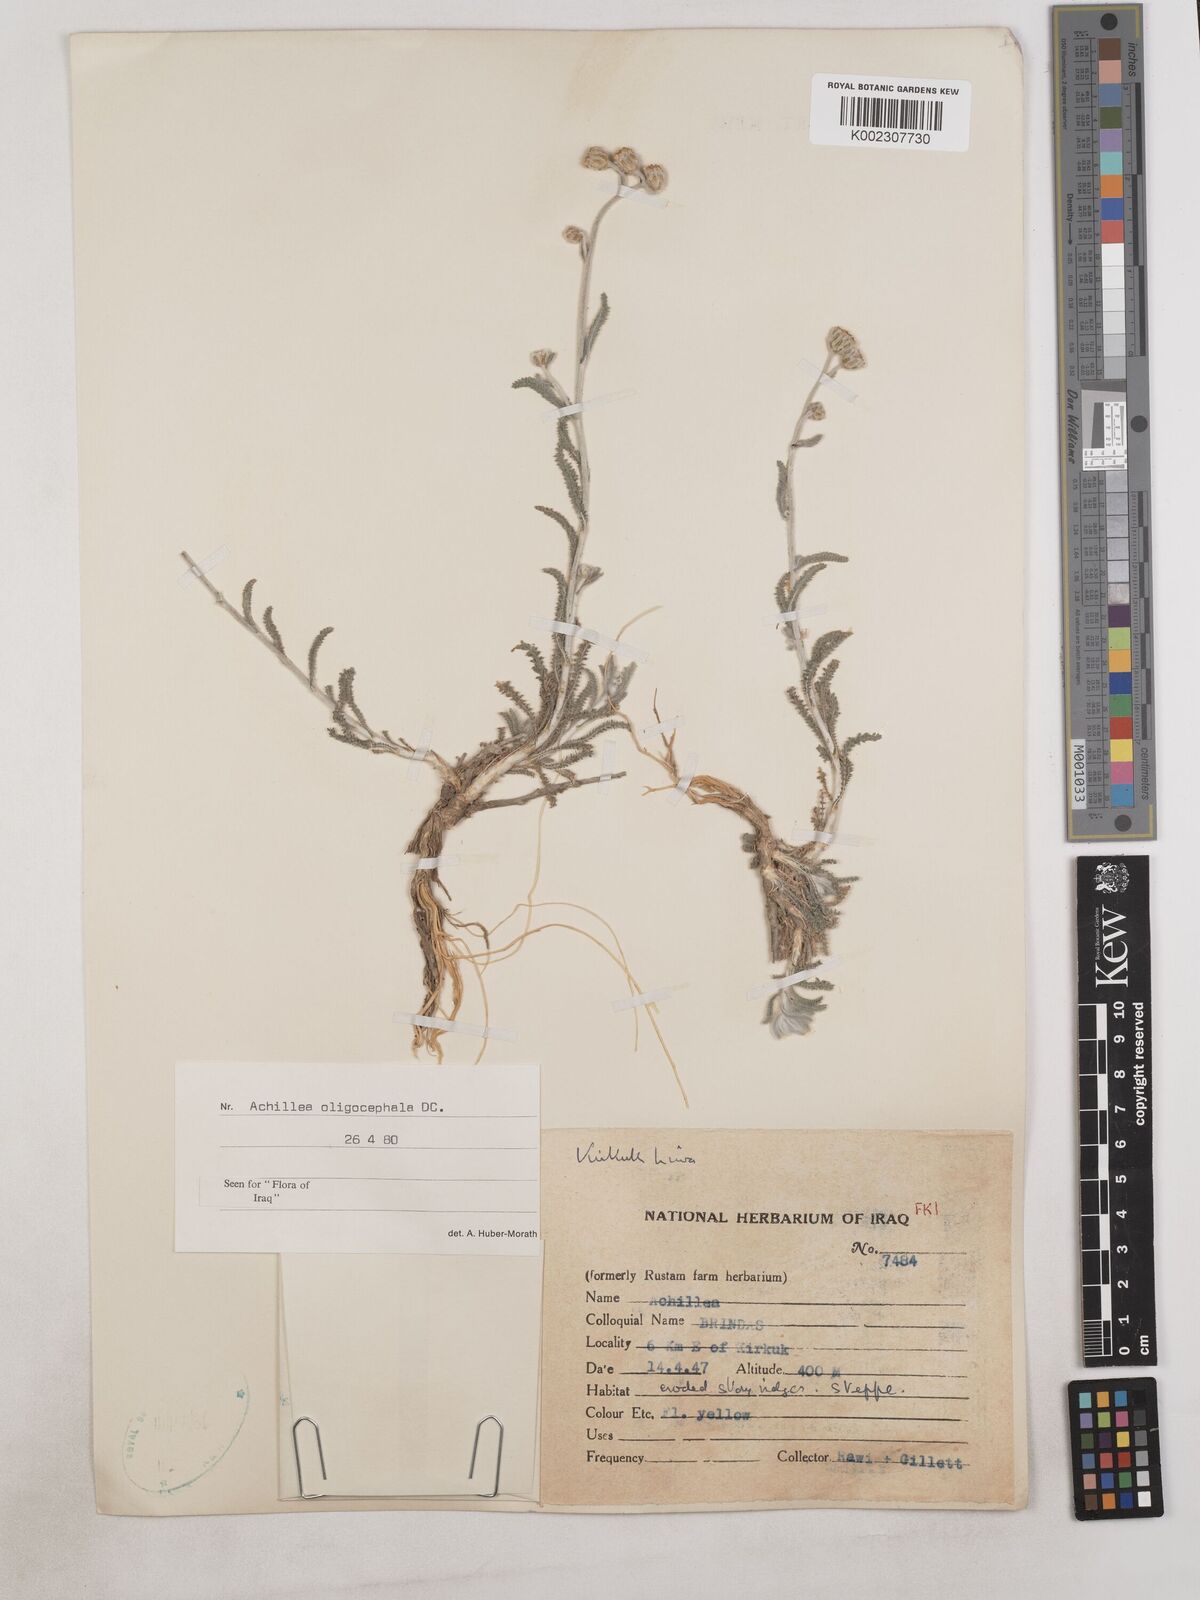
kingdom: Plantae
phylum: Tracheophyta
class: Magnoliopsida
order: Asterales
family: Asteraceae
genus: Achillea
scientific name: Achillea oligocephala
